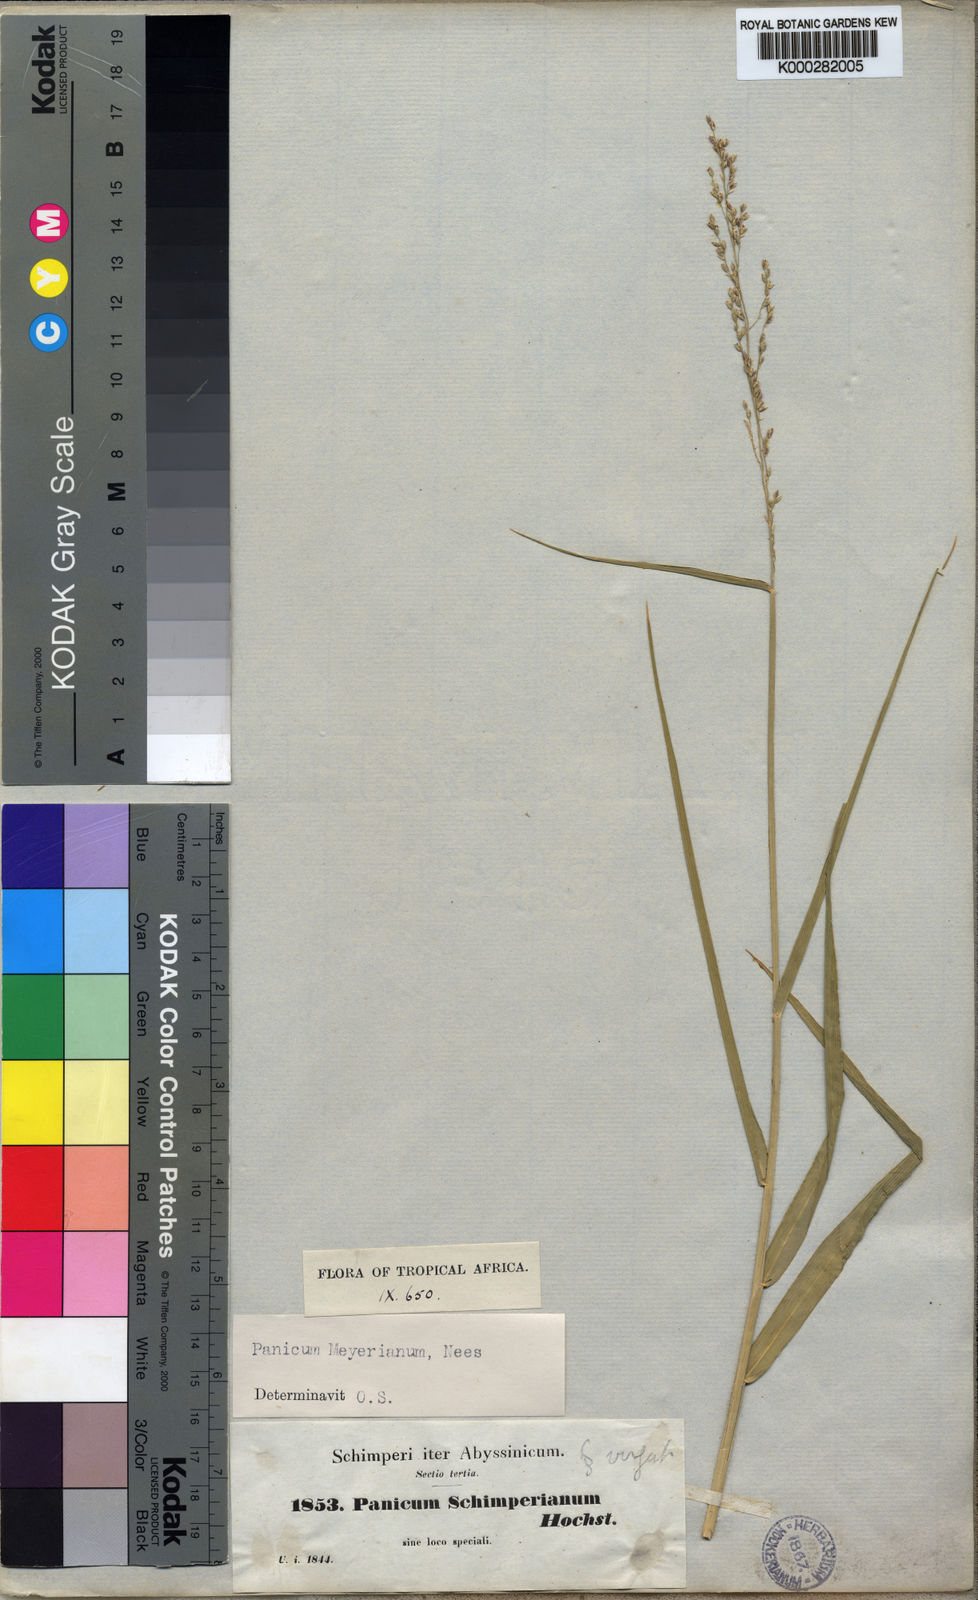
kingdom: Plantae
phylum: Tracheophyta
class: Liliopsida
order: Poales
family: Poaceae
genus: Eriochloa
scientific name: Eriochloa meyeriana
